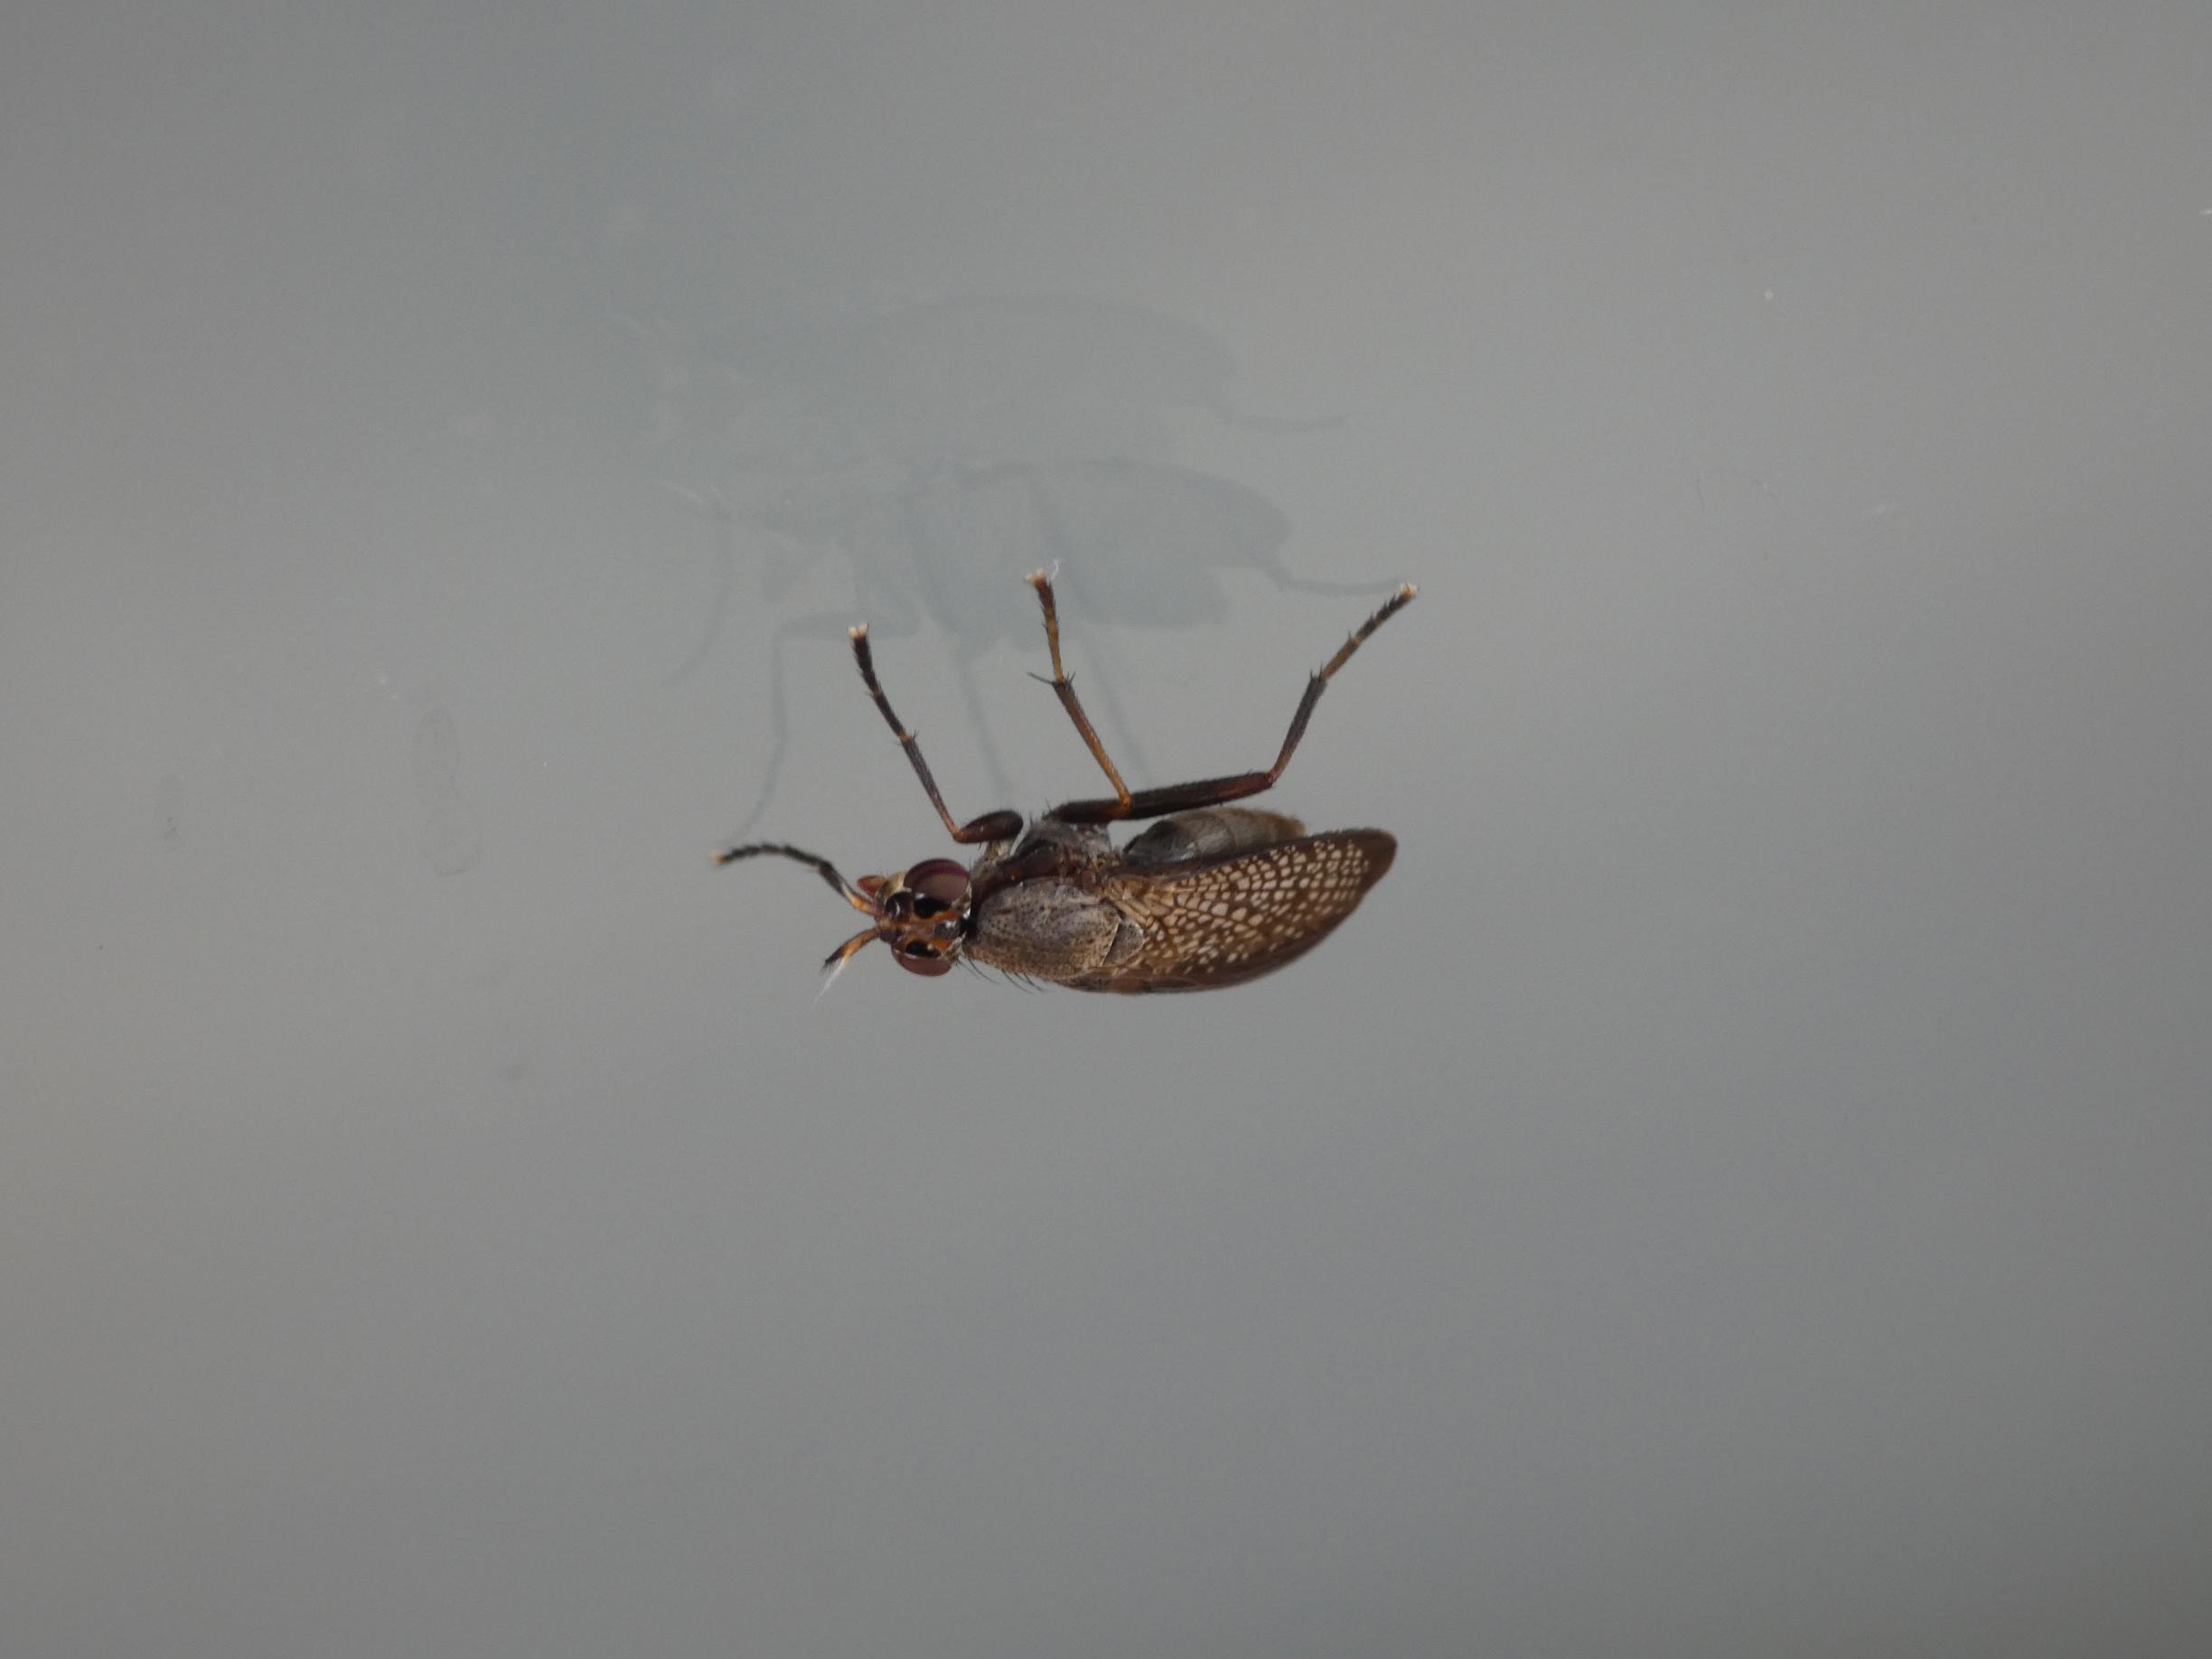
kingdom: Animalia
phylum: Arthropoda
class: Insecta
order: Diptera
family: Sciomyzidae
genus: Coremacera
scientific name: Coremacera marginata
